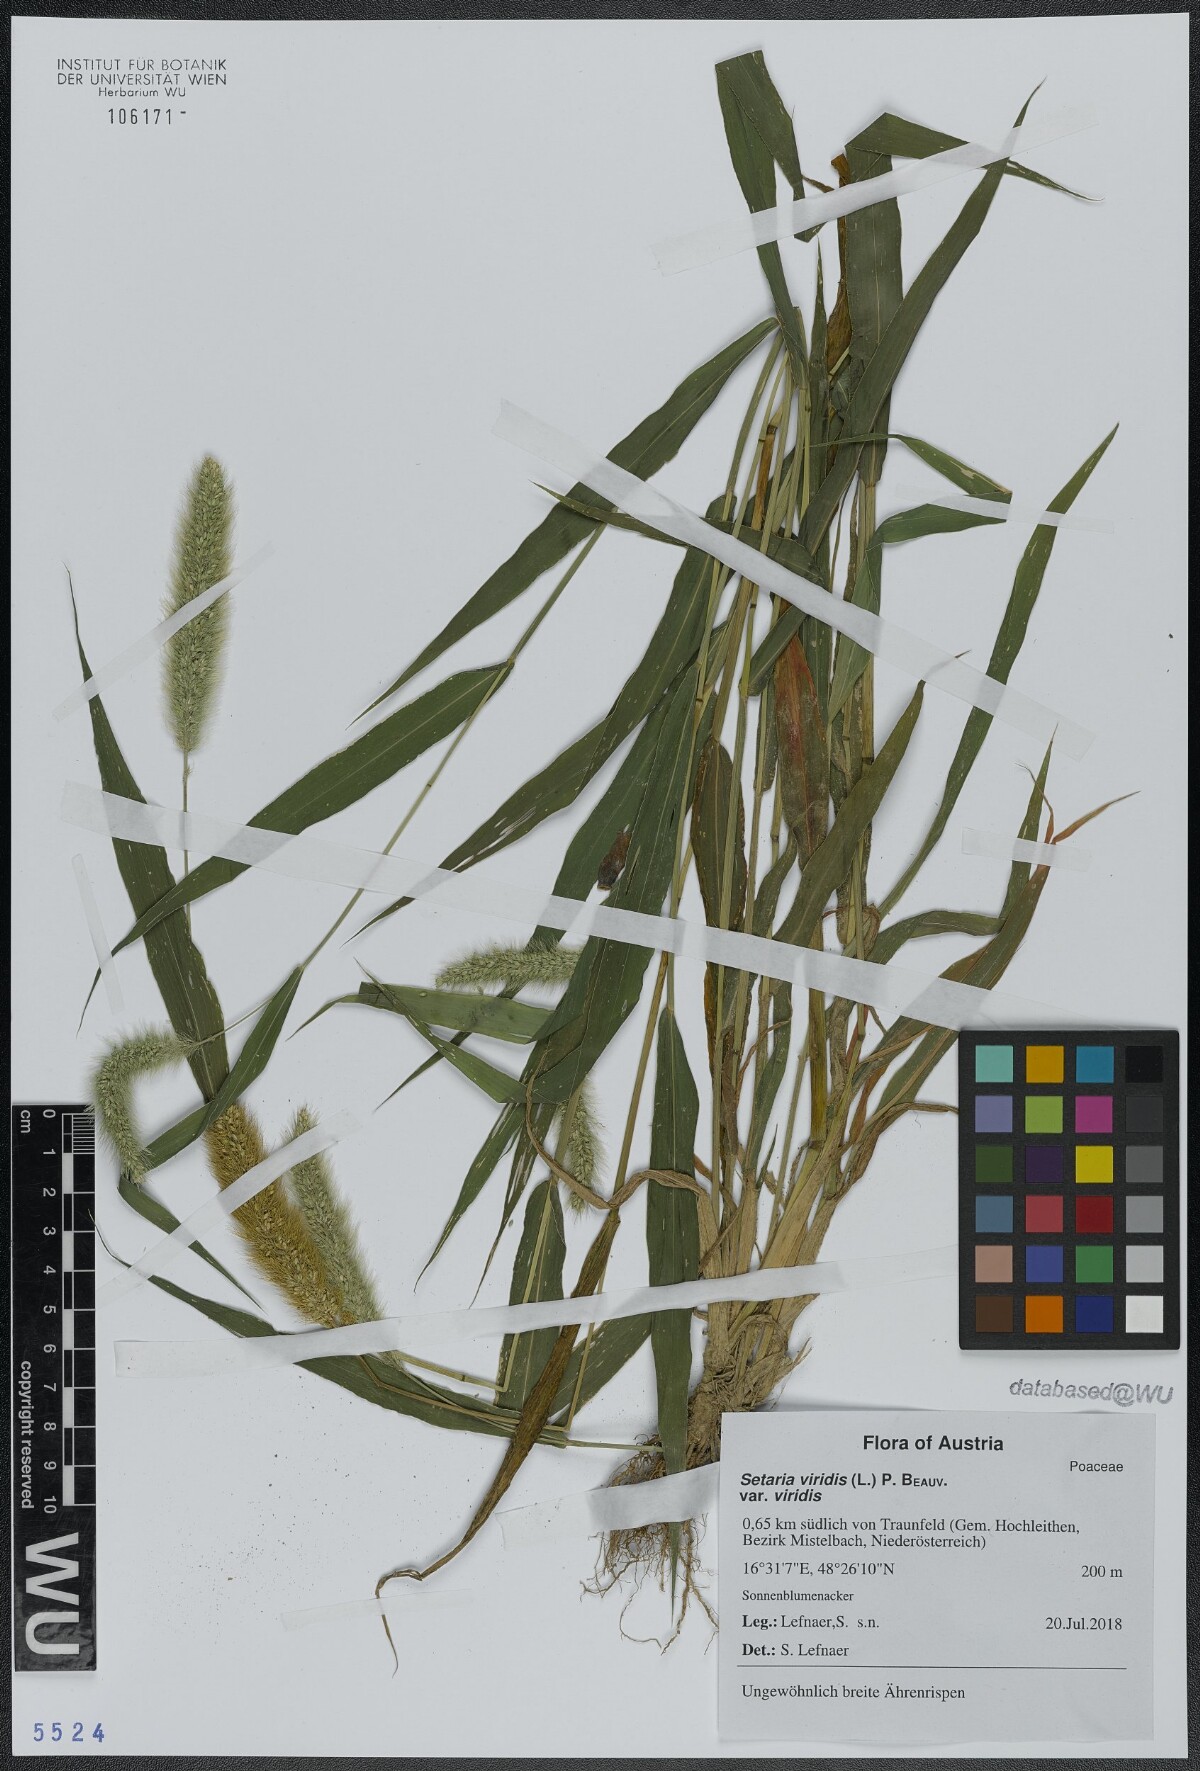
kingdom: Plantae
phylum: Tracheophyta
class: Liliopsida
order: Poales
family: Poaceae
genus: Setaria
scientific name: Setaria viridis
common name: Green bristlegrass
